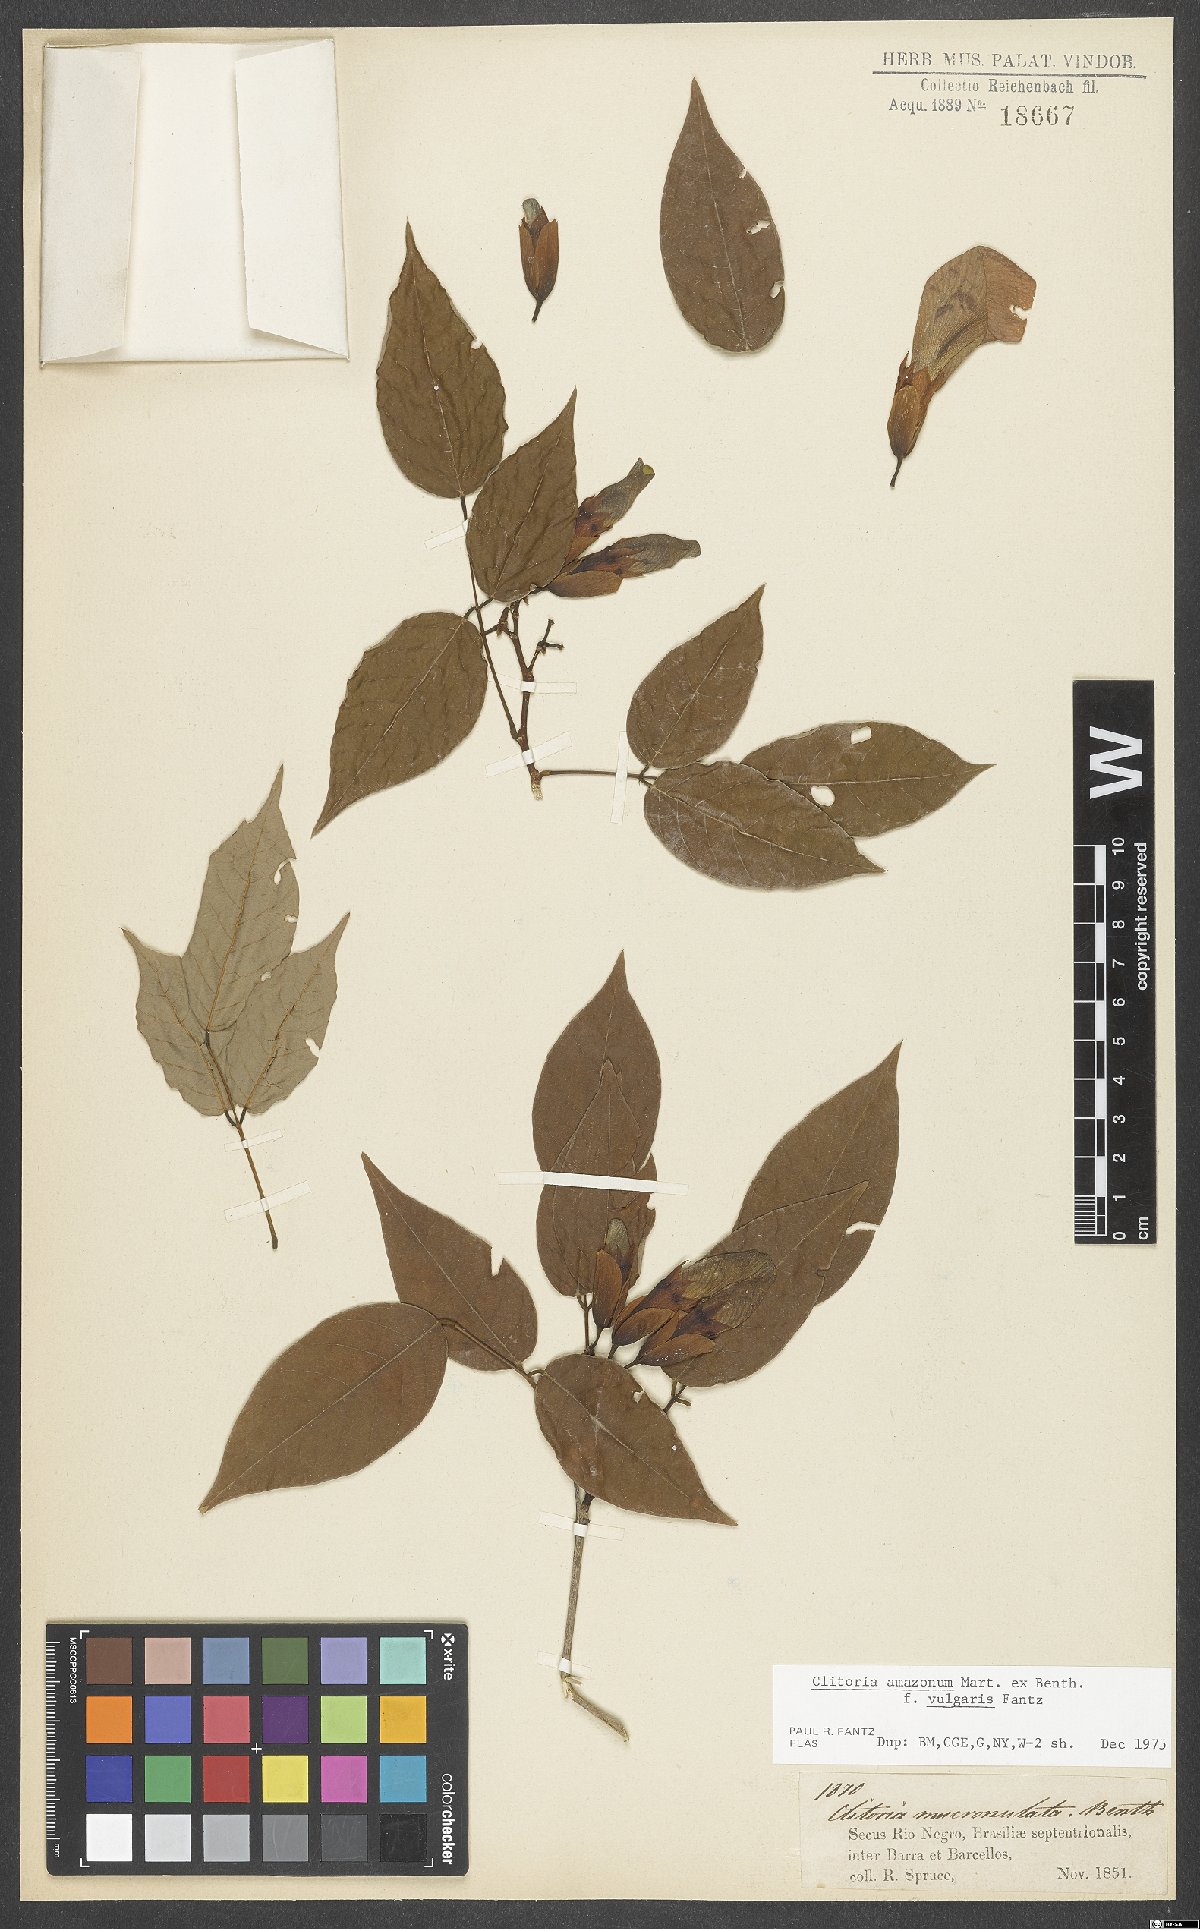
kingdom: Plantae
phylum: Tracheophyta
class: Magnoliopsida
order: Fabales
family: Fabaceae
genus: Clitoria
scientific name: Clitoria amazonum
